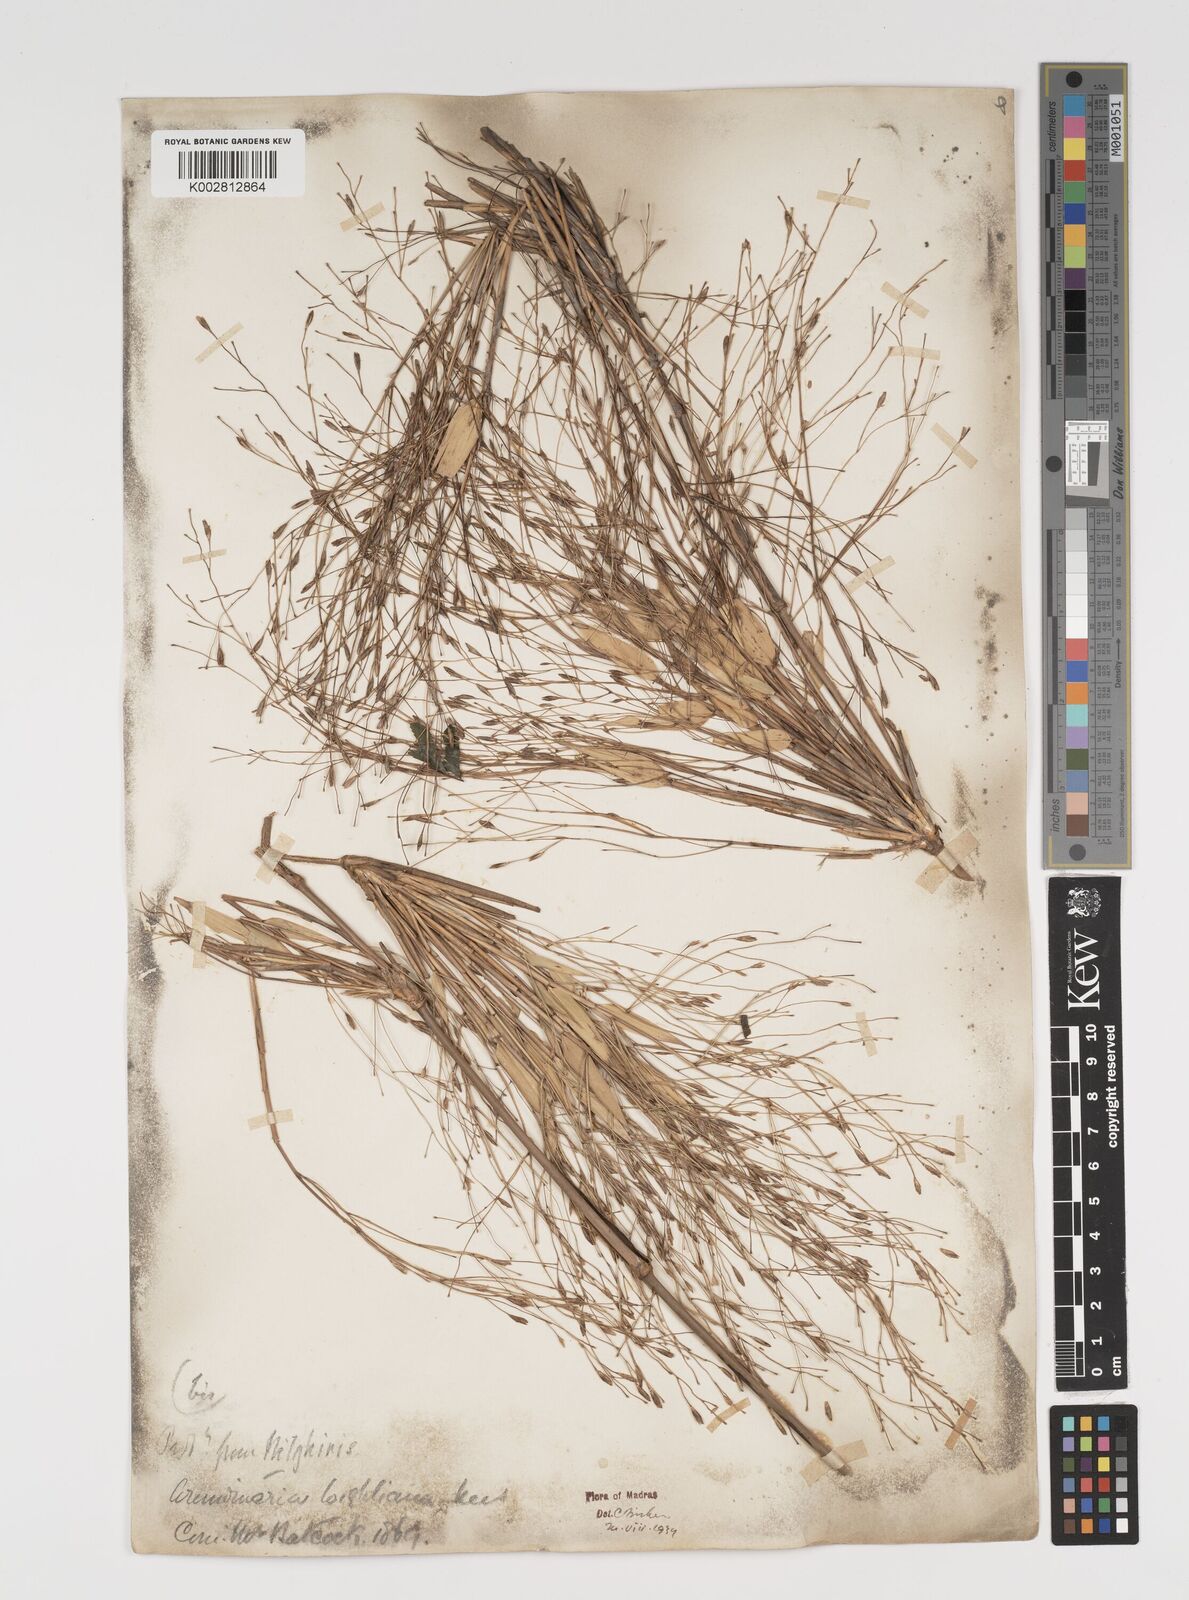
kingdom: Plantae
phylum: Tracheophyta
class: Liliopsida
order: Poales
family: Poaceae
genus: Kuruna
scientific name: Kuruna wightiana
